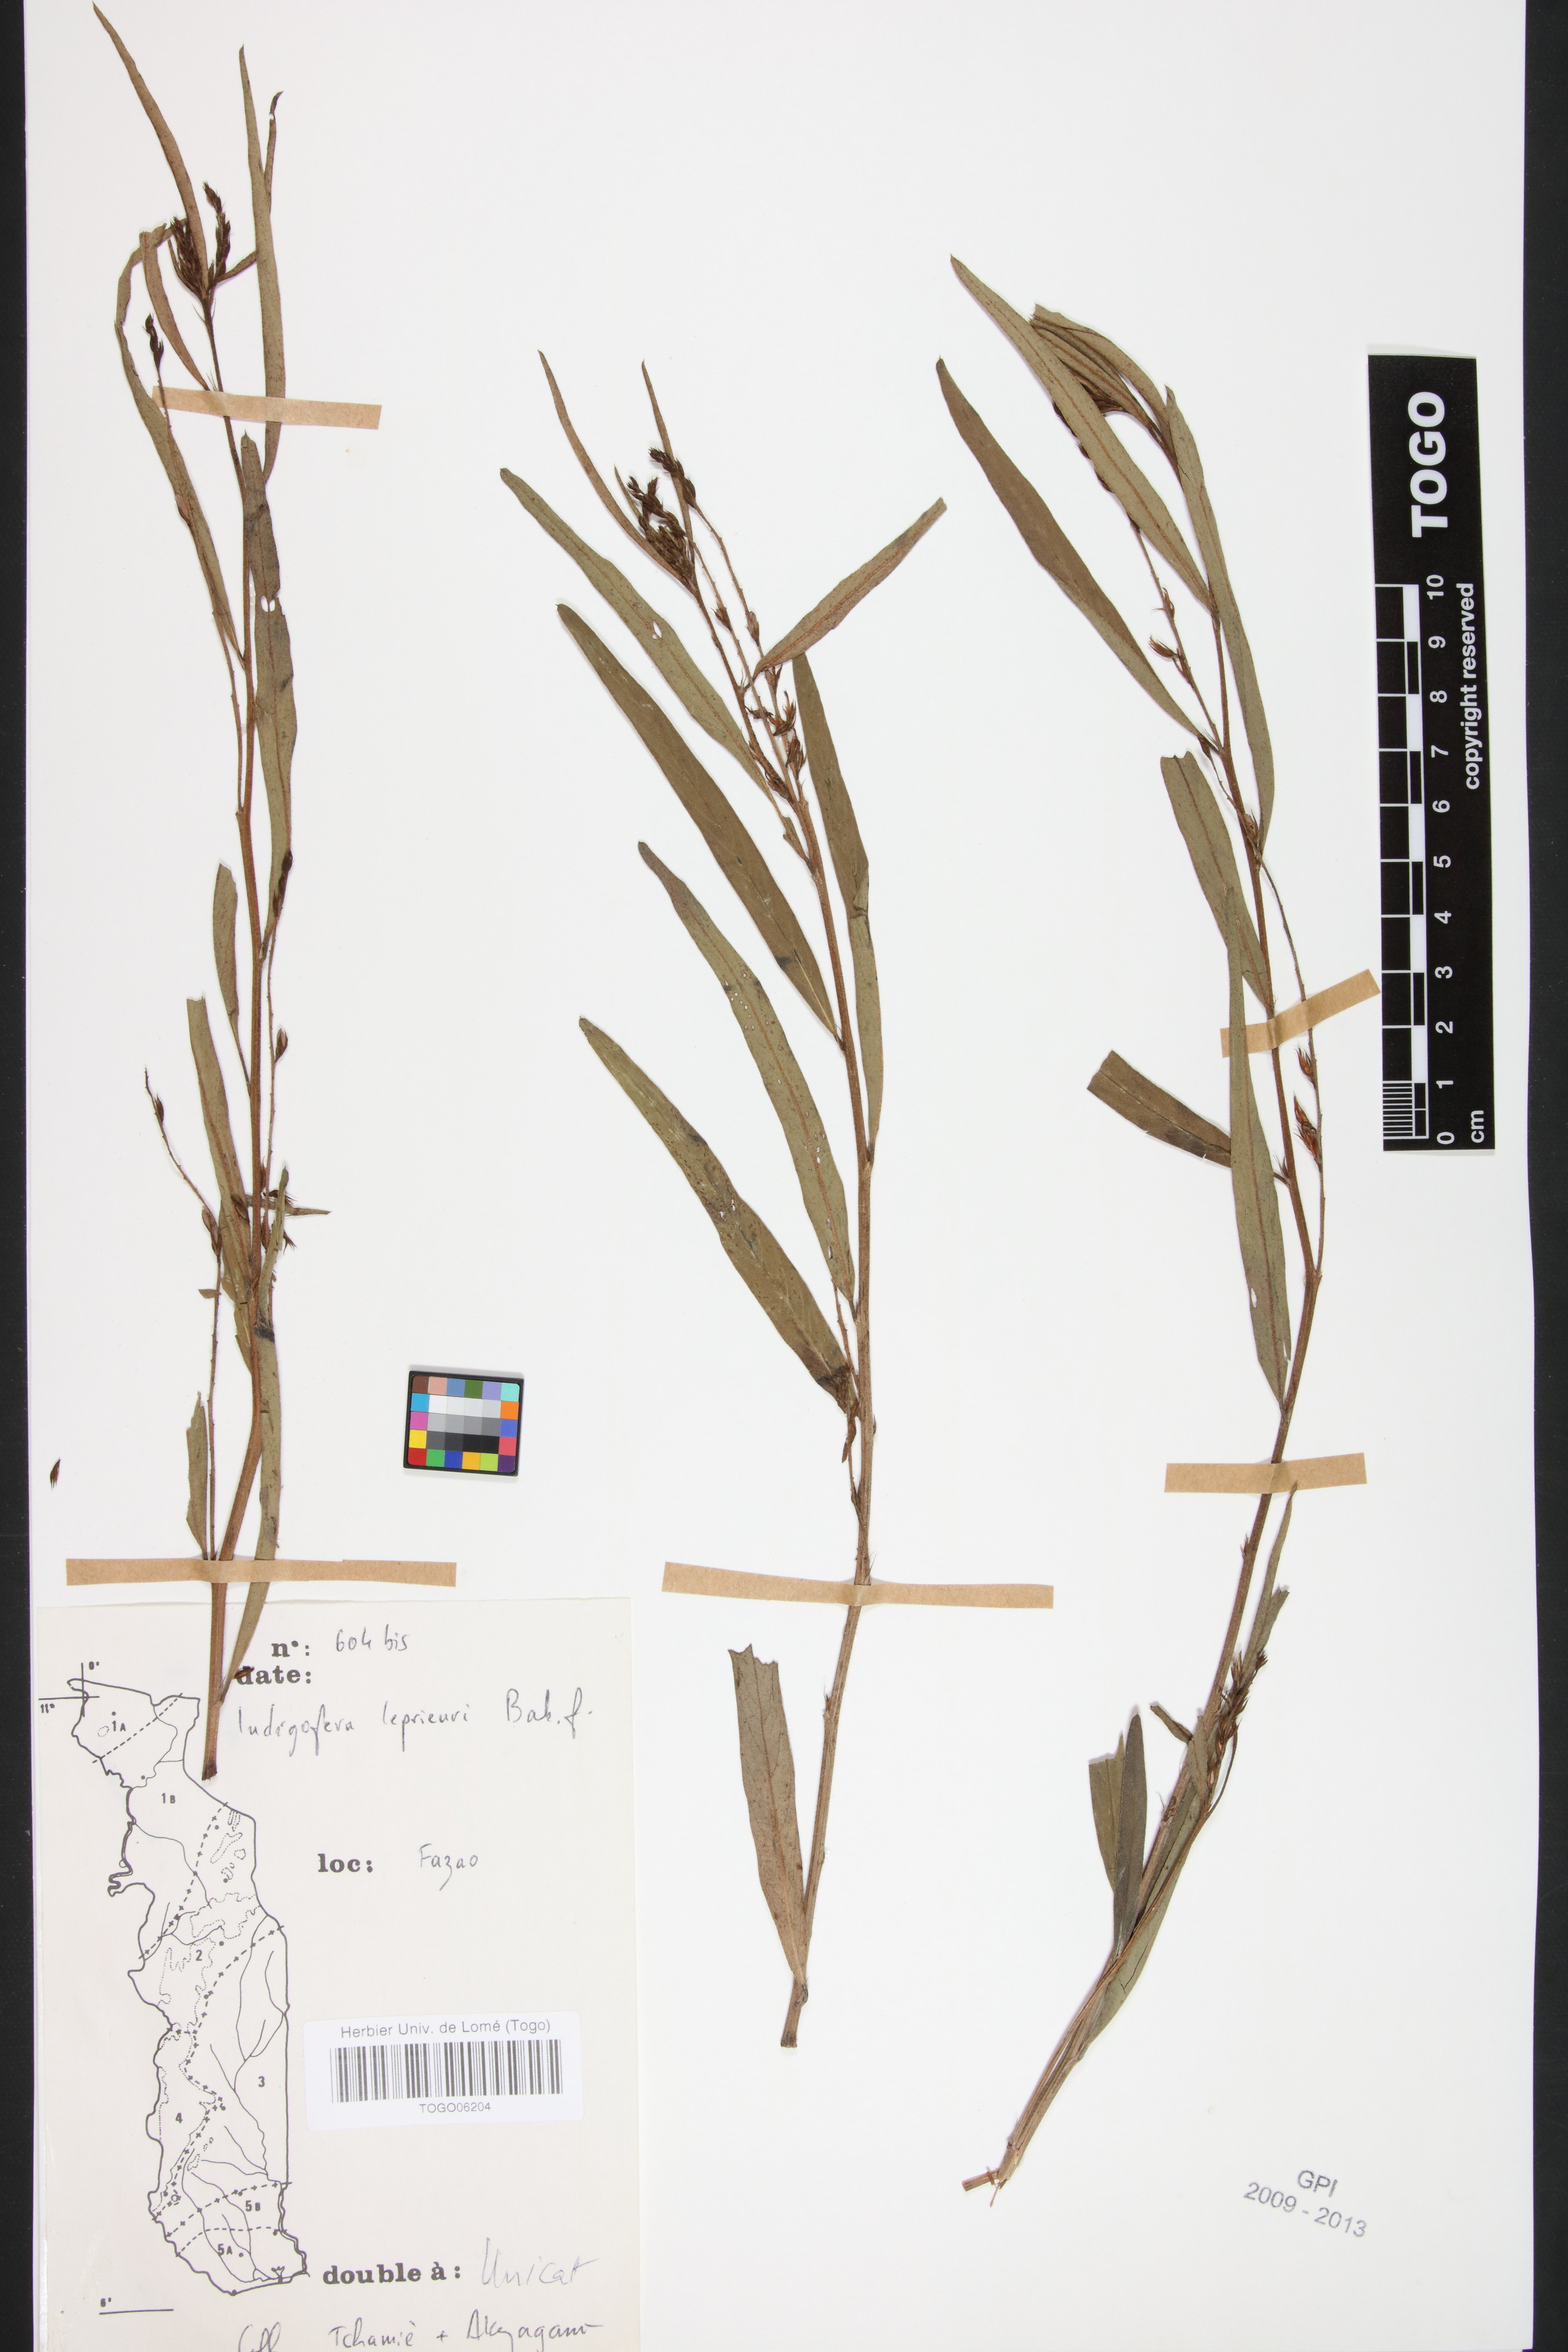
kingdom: Plantae
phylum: Tracheophyta
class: Magnoliopsida
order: Fabales
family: Fabaceae
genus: Indigofera
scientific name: Indigofera leprieurii
